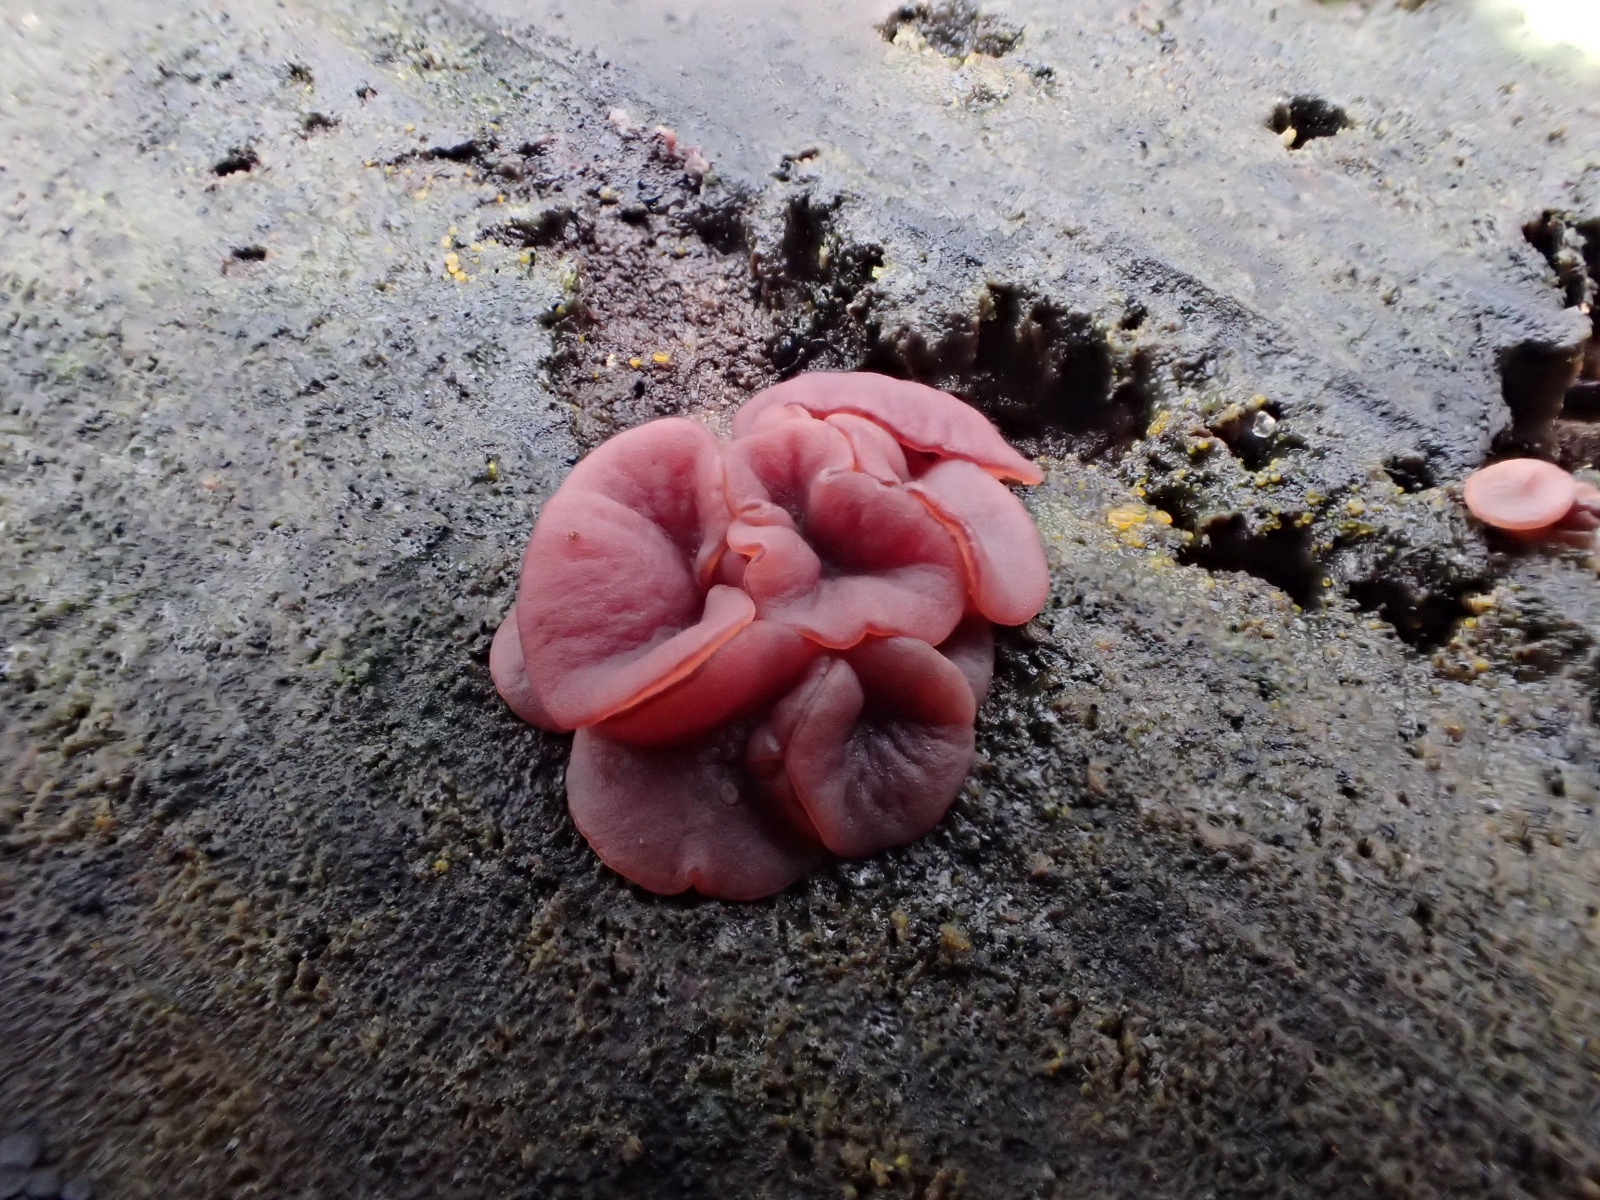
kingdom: Fungi
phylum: Ascomycota
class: Leotiomycetes
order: Helotiales
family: Gelatinodiscaceae
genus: Ascocoryne
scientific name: Ascocoryne cylichnium
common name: stor sejskive
